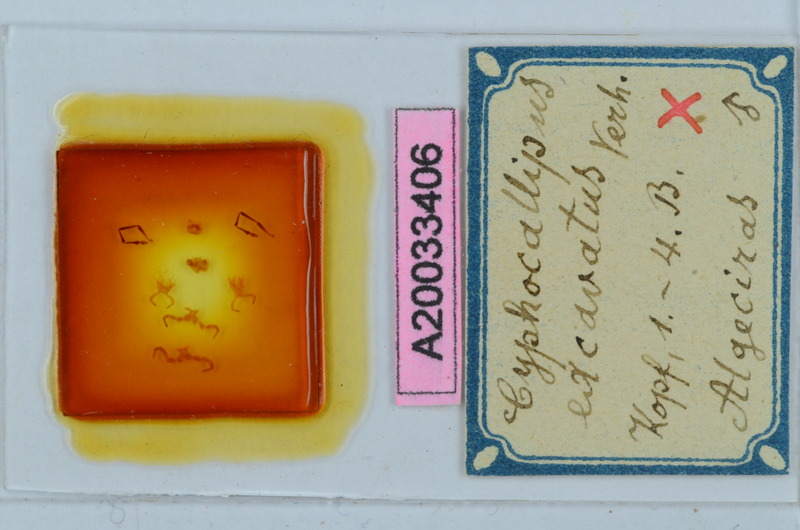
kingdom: Animalia
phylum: Arthropoda
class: Diplopoda
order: Callipodida
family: Dorypetalidae
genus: Cyphocallipus
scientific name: Cyphocallipus excavatus
